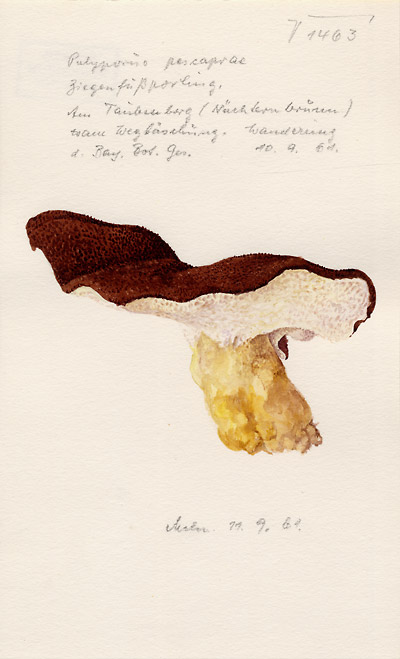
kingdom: Fungi
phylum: Basidiomycota
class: Agaricomycetes
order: Russulales
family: Albatrellaceae
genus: Scutiger
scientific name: Scutiger pes-caprae
